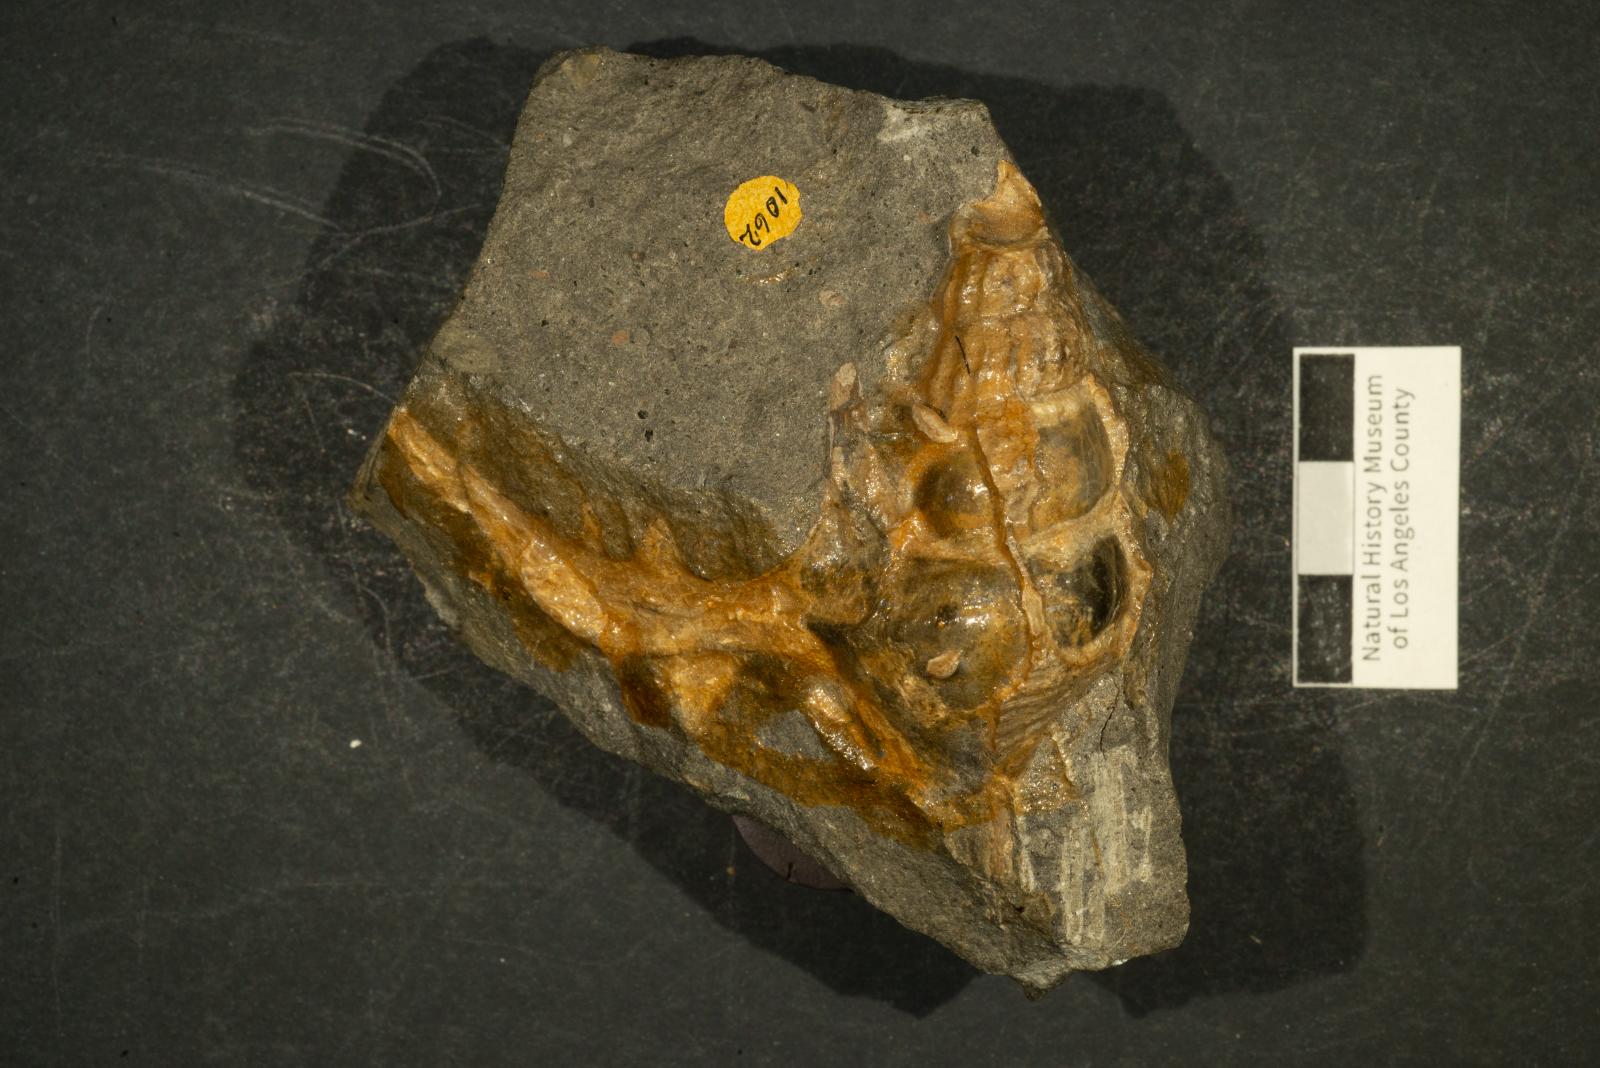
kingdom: Animalia
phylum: Mollusca
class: Gastropoda
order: Littorinimorpha
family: Aporrhaidae
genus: Helicaulax
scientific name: Helicaulax Anchura tricosa
